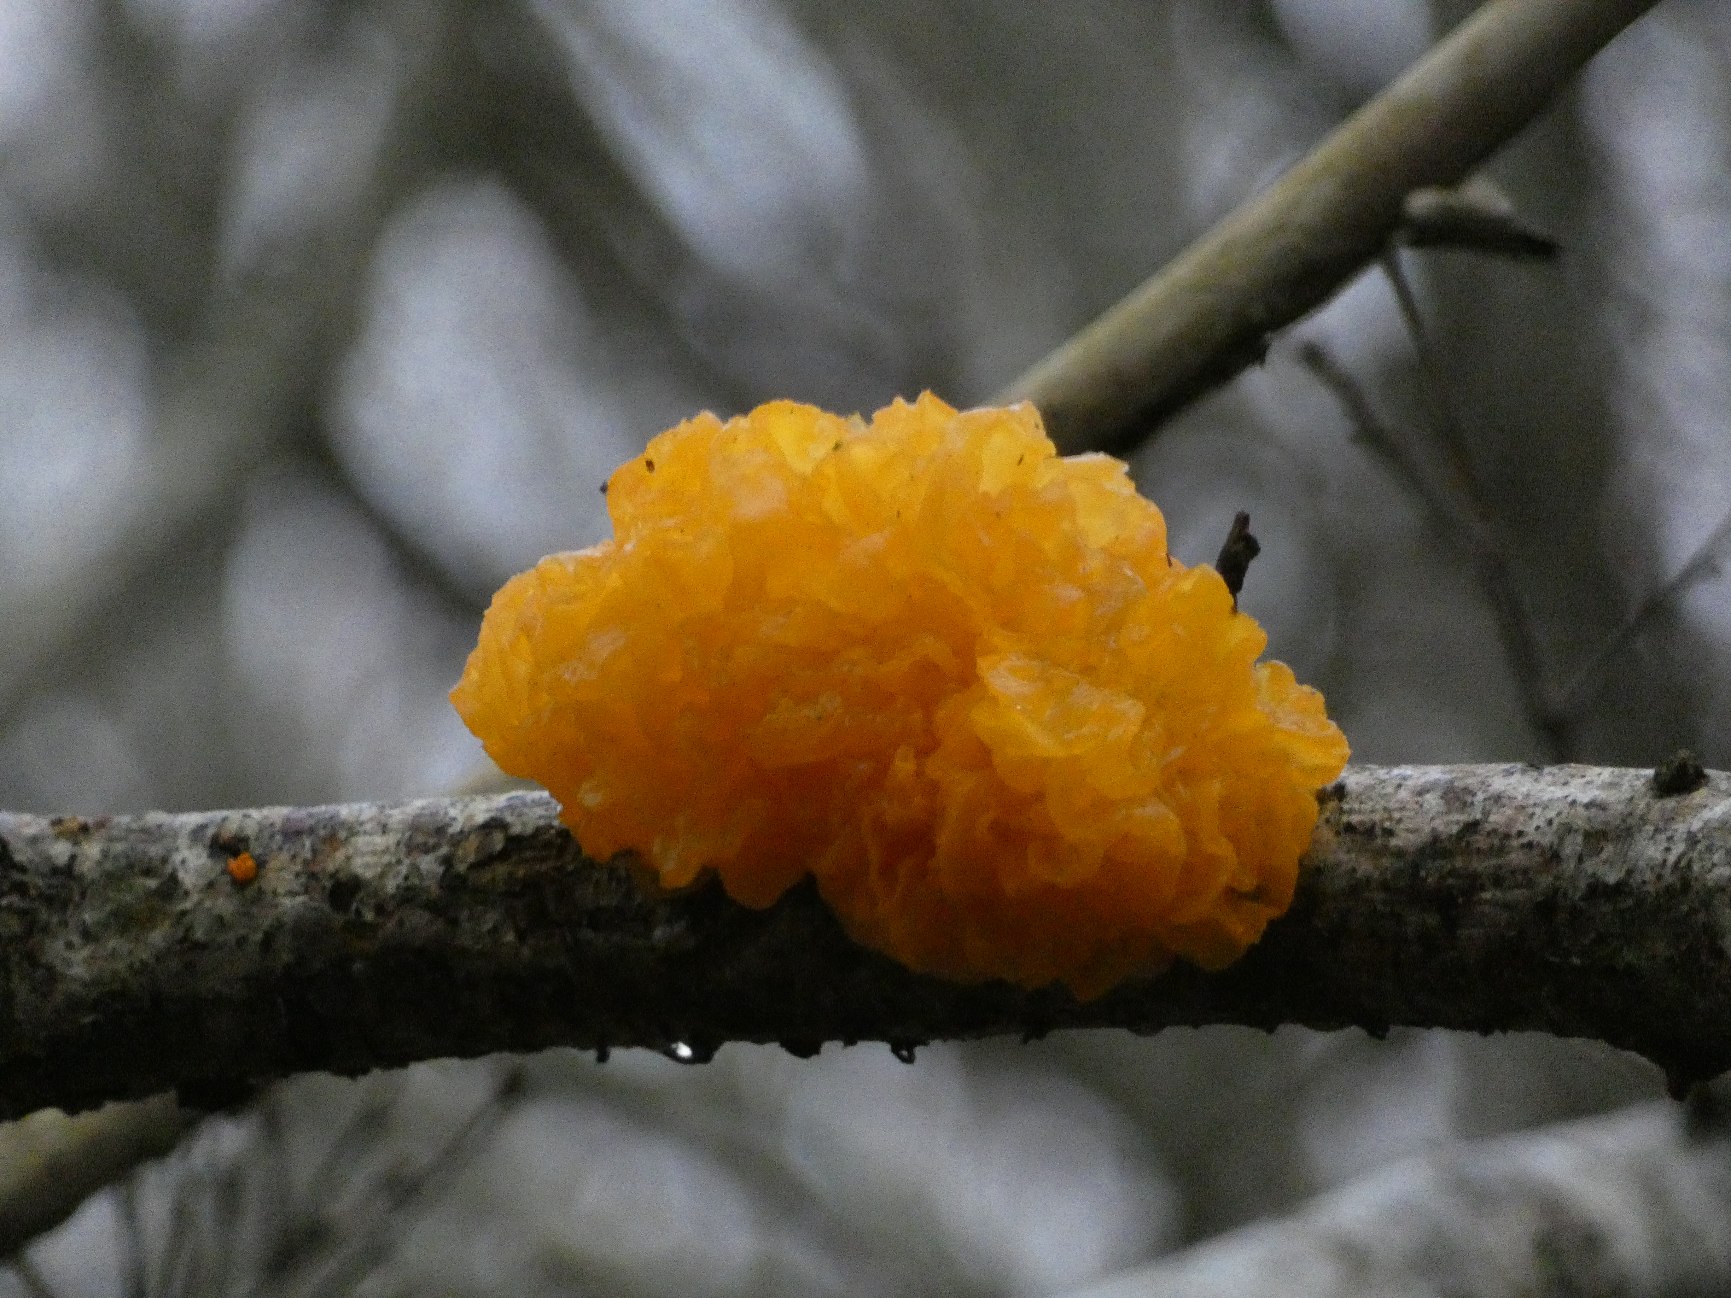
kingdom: Fungi
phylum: Basidiomycota
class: Tremellomycetes
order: Tremellales
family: Tremellaceae
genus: Tremella
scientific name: Tremella mesenterica
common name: Gul bævresvamp
